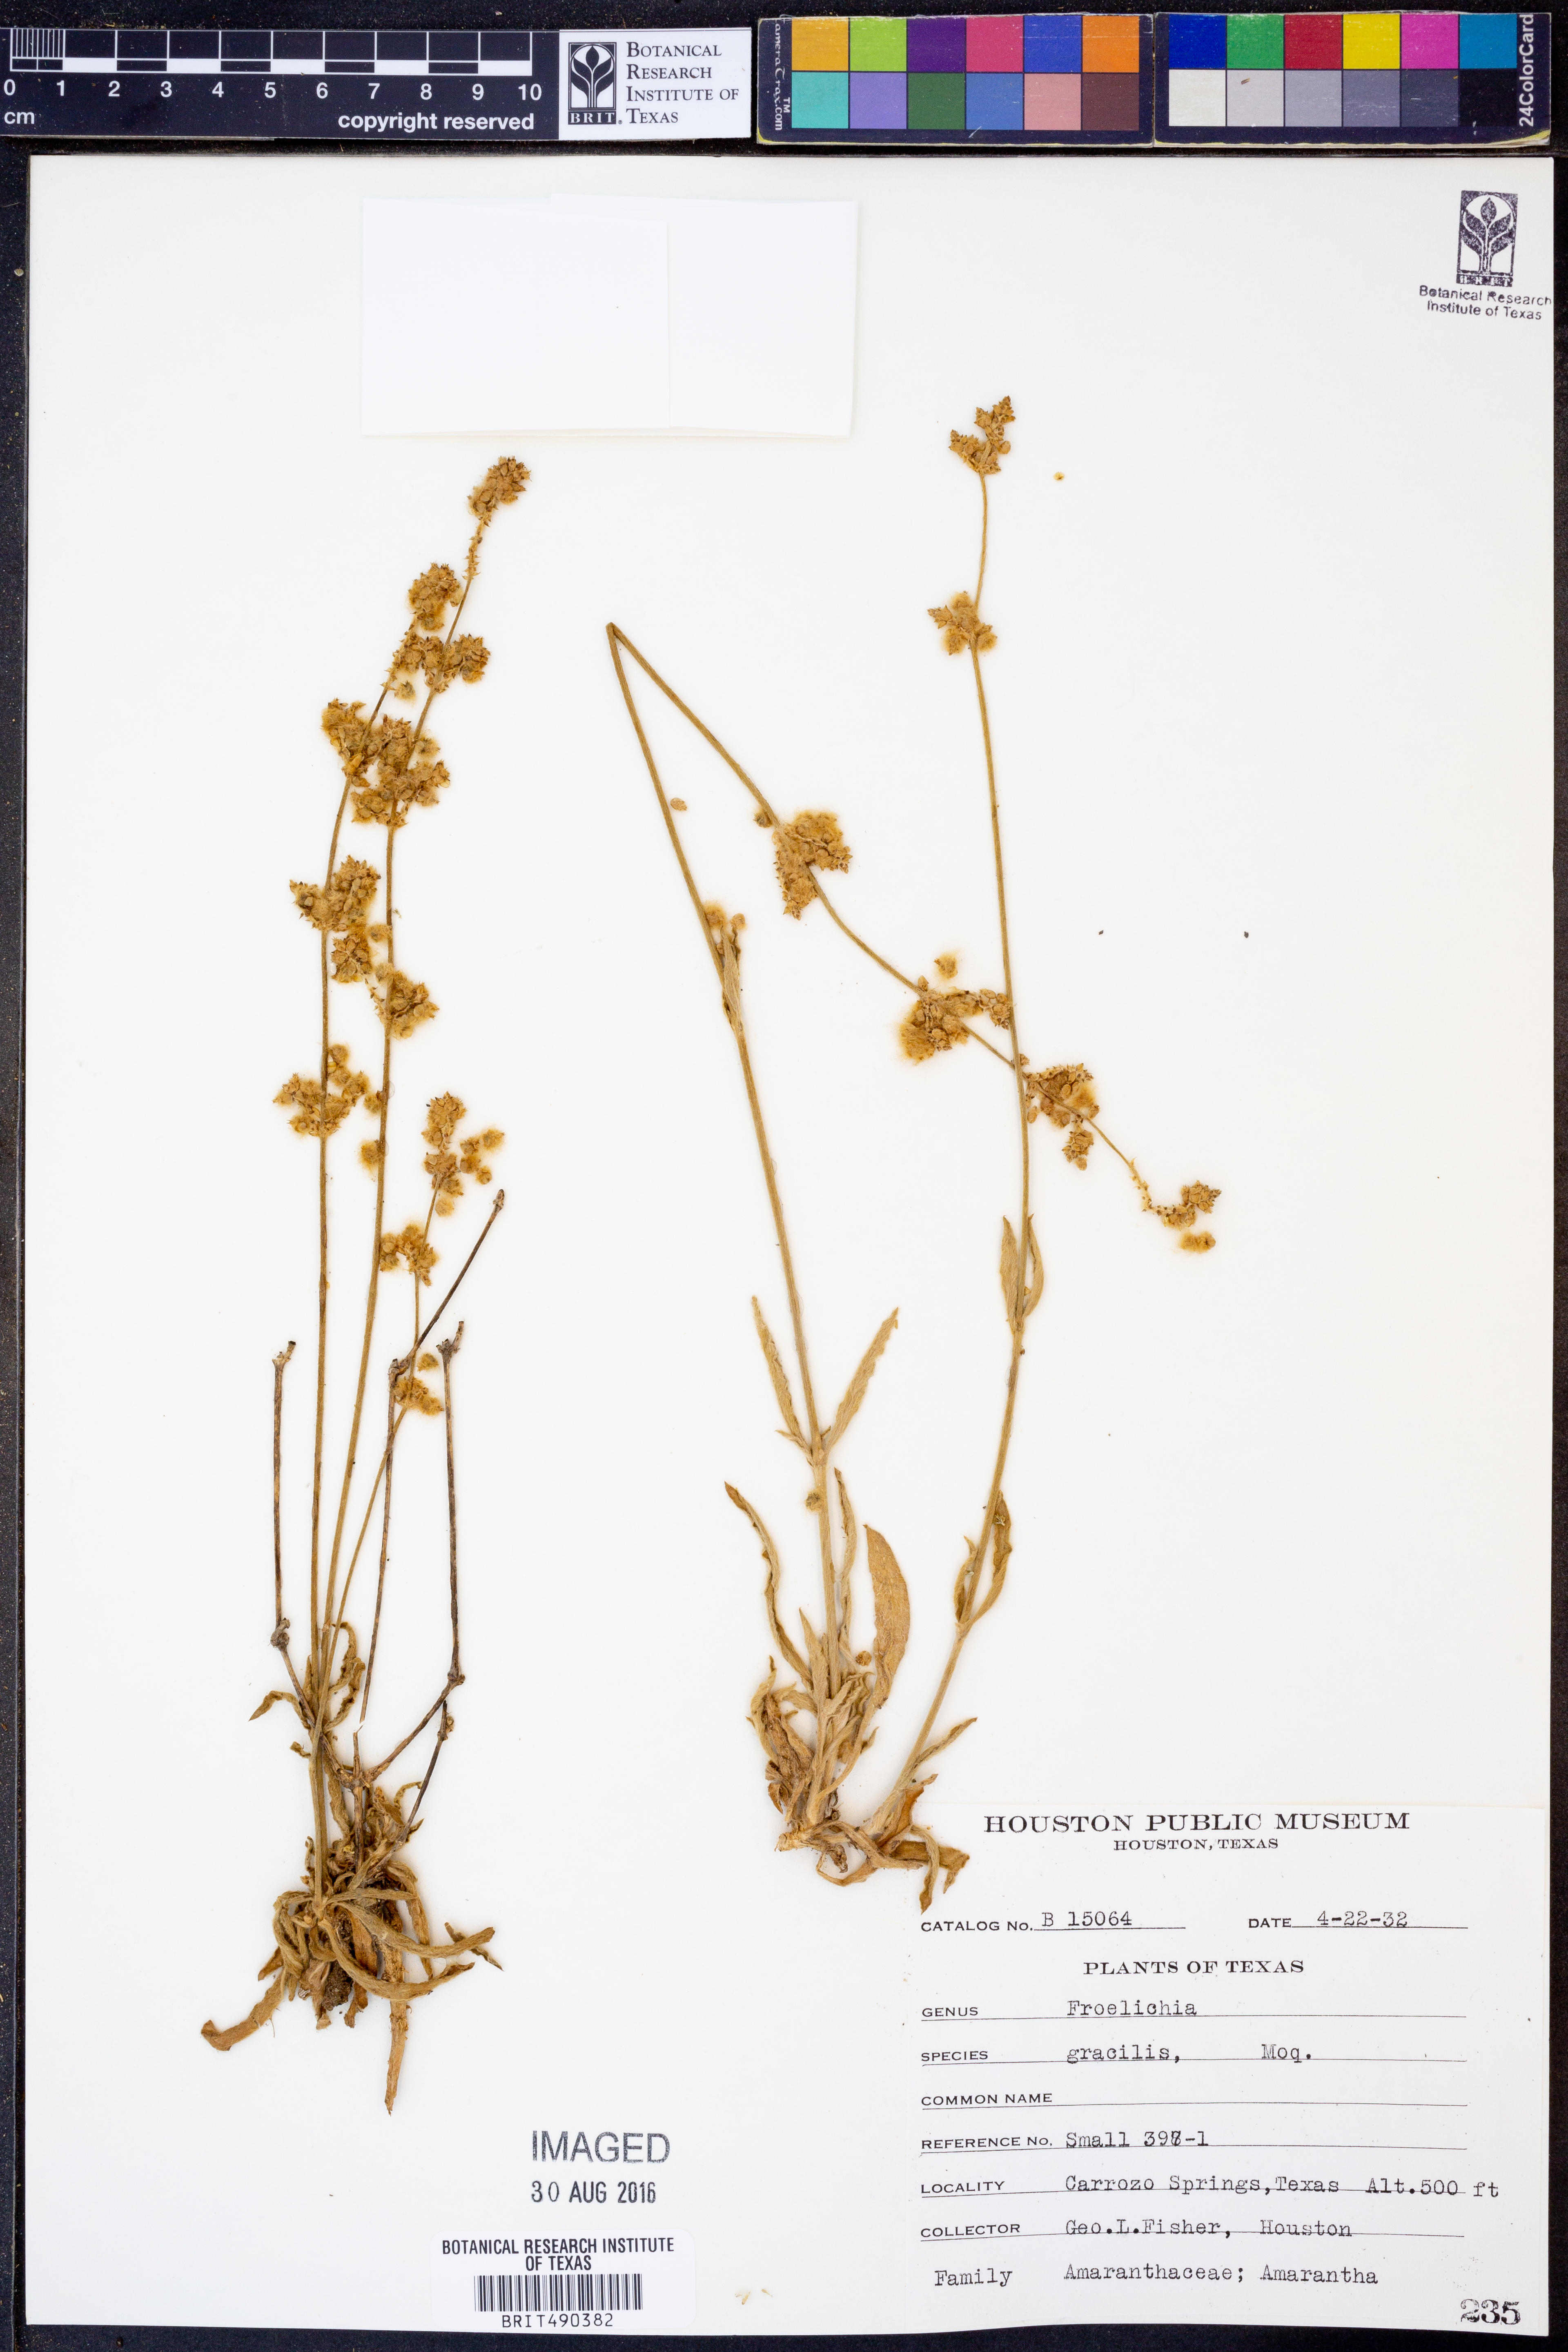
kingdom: Plantae
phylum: Tracheophyta
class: Magnoliopsida
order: Caryophyllales
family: Amaranthaceae
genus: Froelichia
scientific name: Froelichia gracilis
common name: Slender cottonweed
